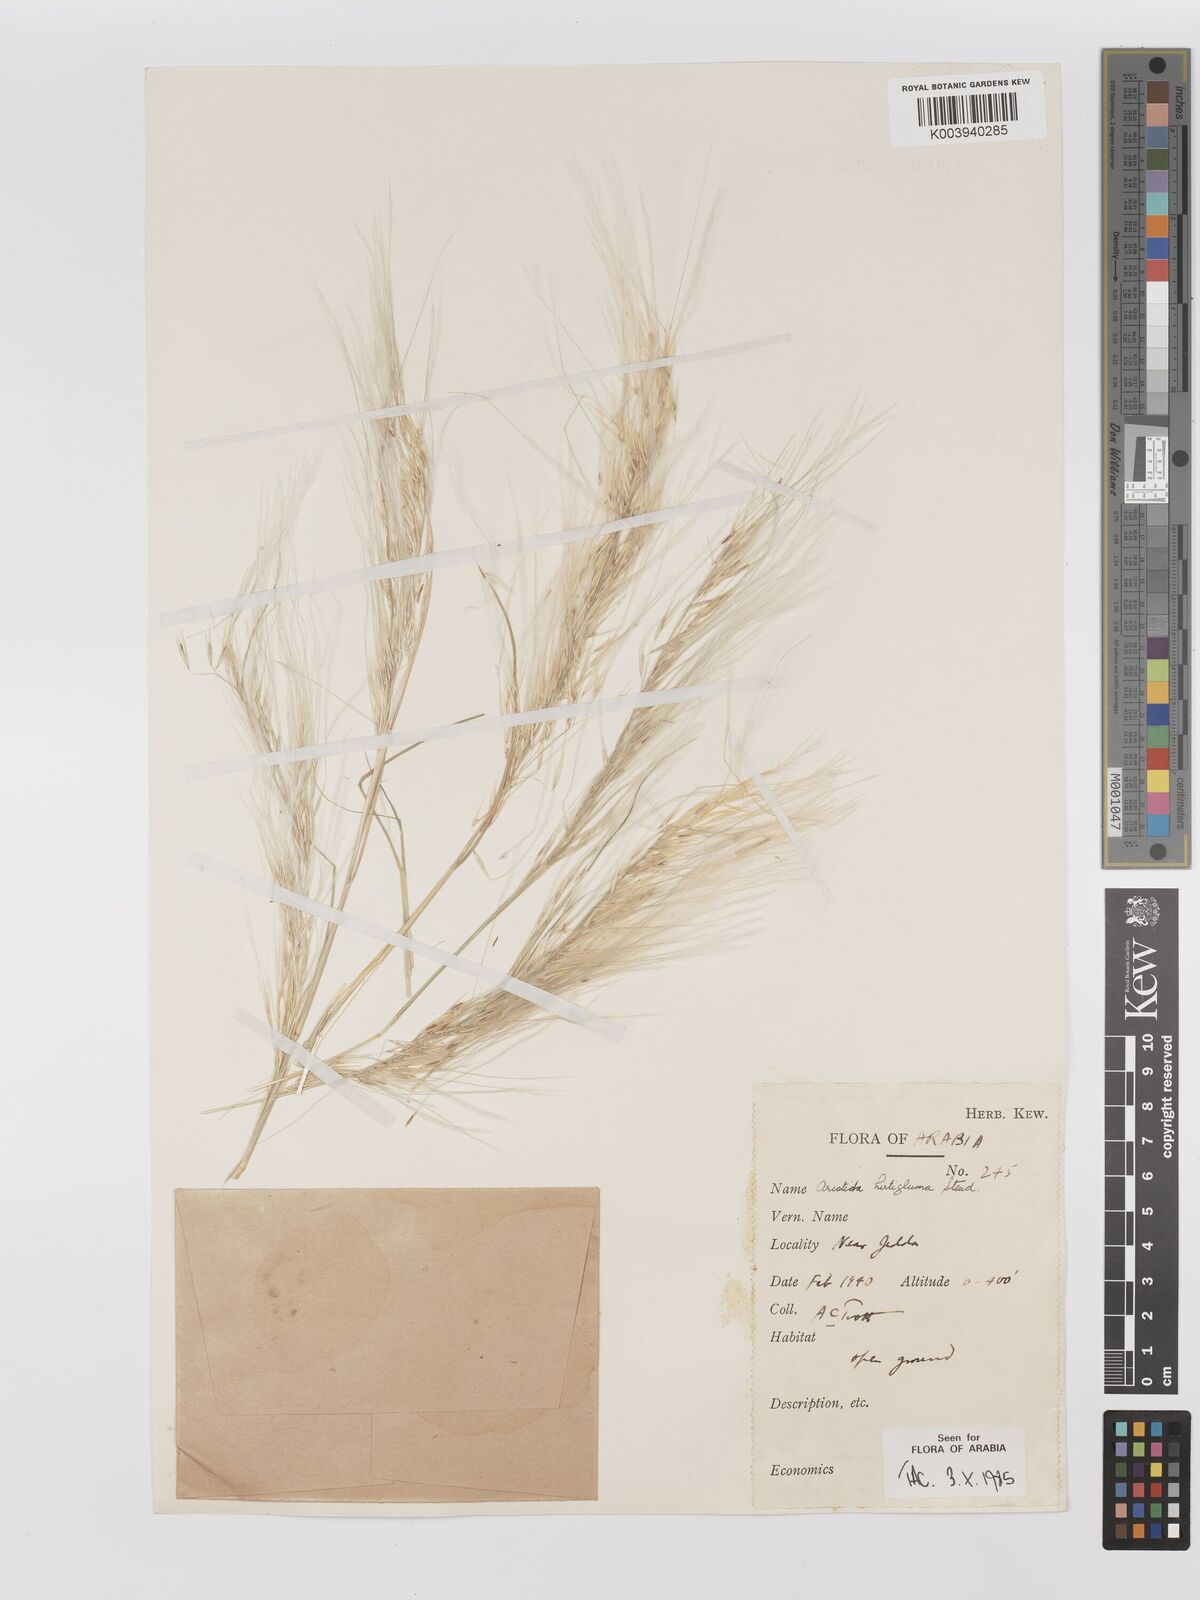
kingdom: Plantae
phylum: Tracheophyta
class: Liliopsida
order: Poales
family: Poaceae
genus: Stipagrostis
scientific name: Stipagrostis hirtigluma
